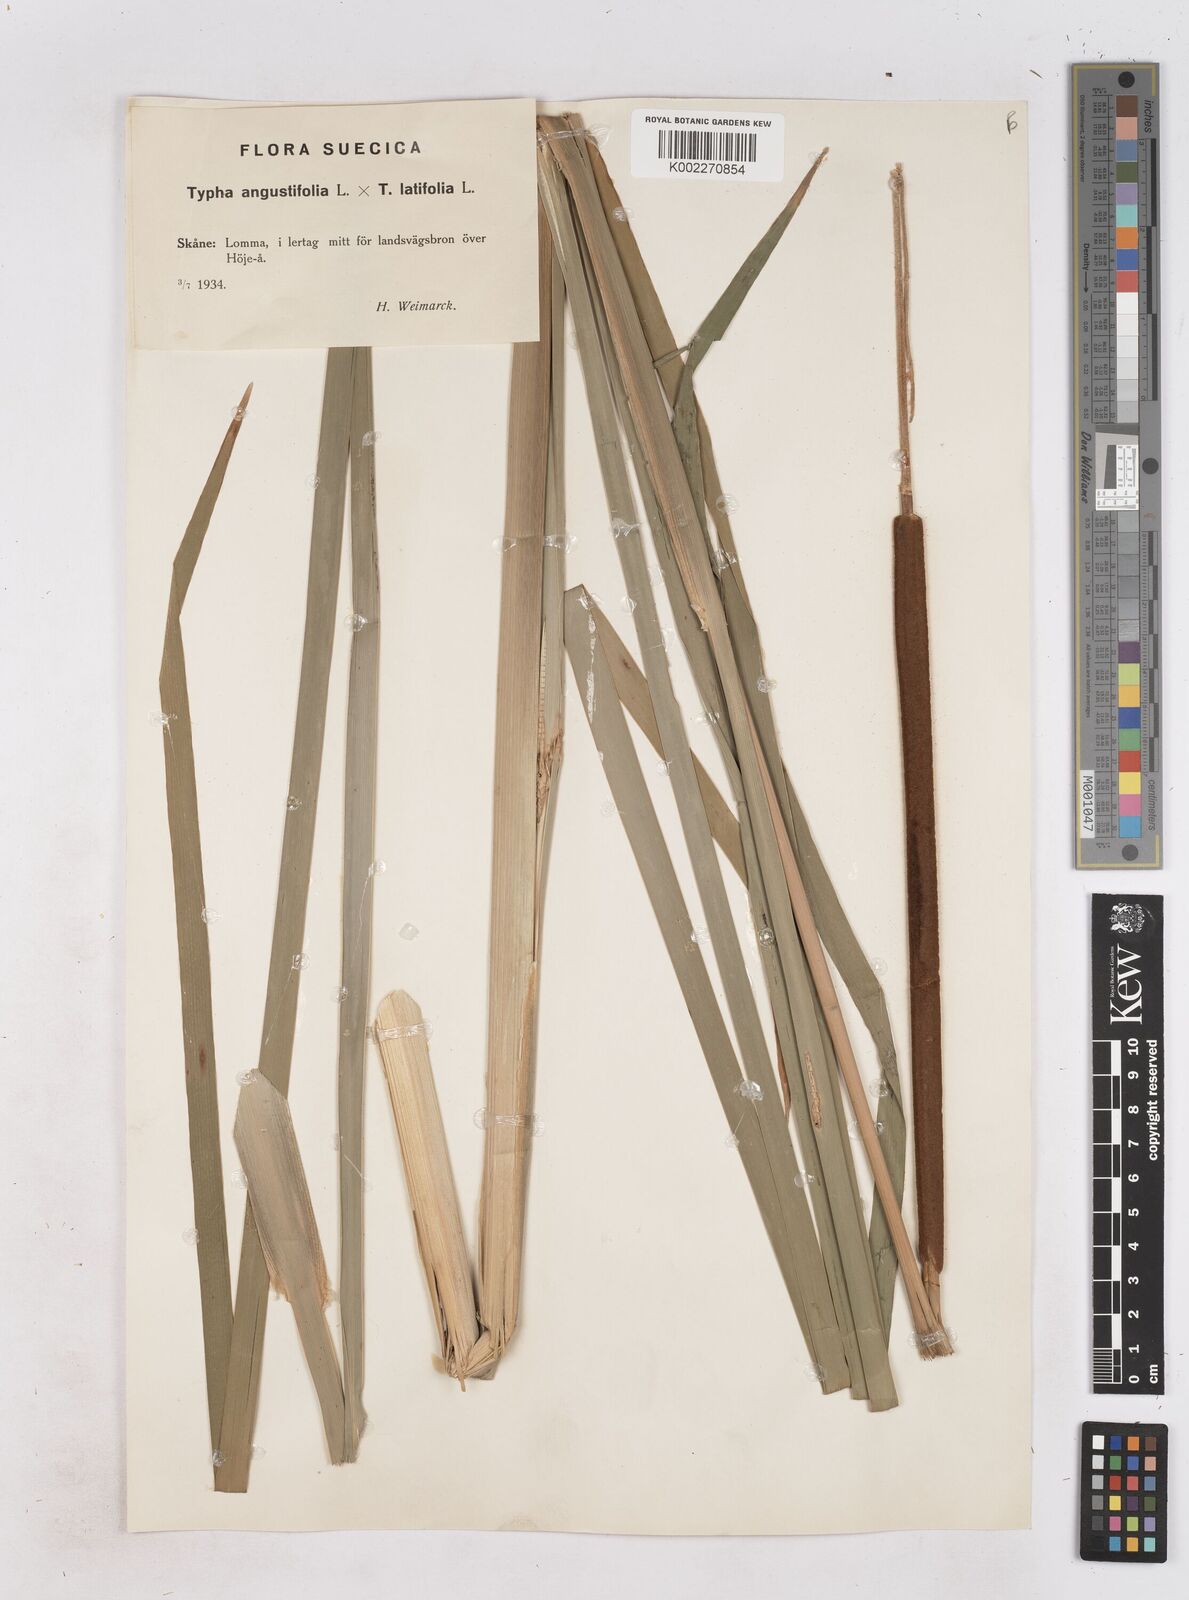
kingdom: Plantae
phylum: Tracheophyta
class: Liliopsida
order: Poales
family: Typhaceae
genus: Typha
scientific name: Typha
